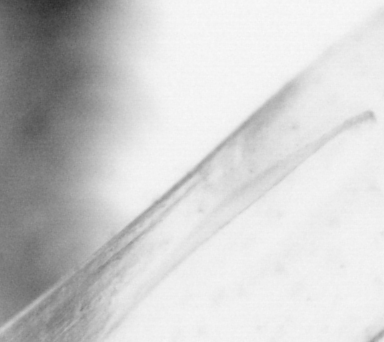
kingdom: Animalia
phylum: Chordata
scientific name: Chordata
